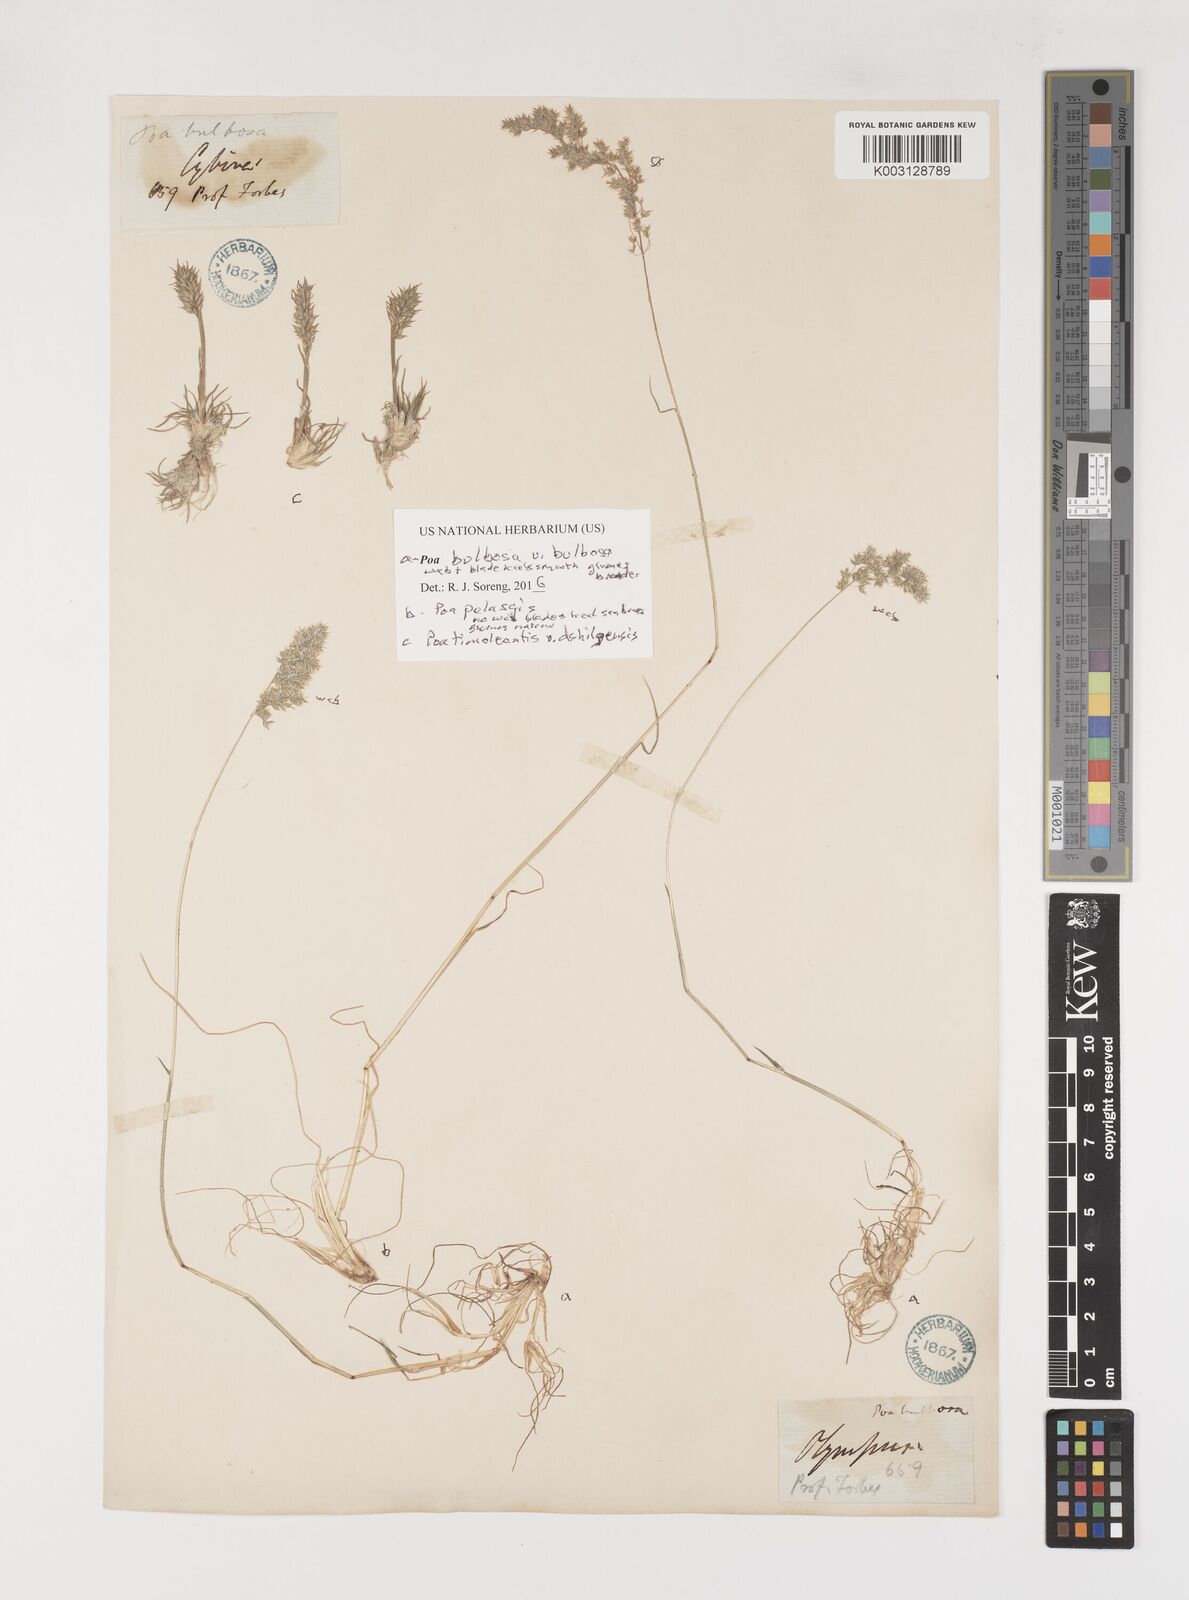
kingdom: Plantae
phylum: Tracheophyta
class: Liliopsida
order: Poales
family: Poaceae
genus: Poa
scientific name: Poa iconia
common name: Konya bluegrass
